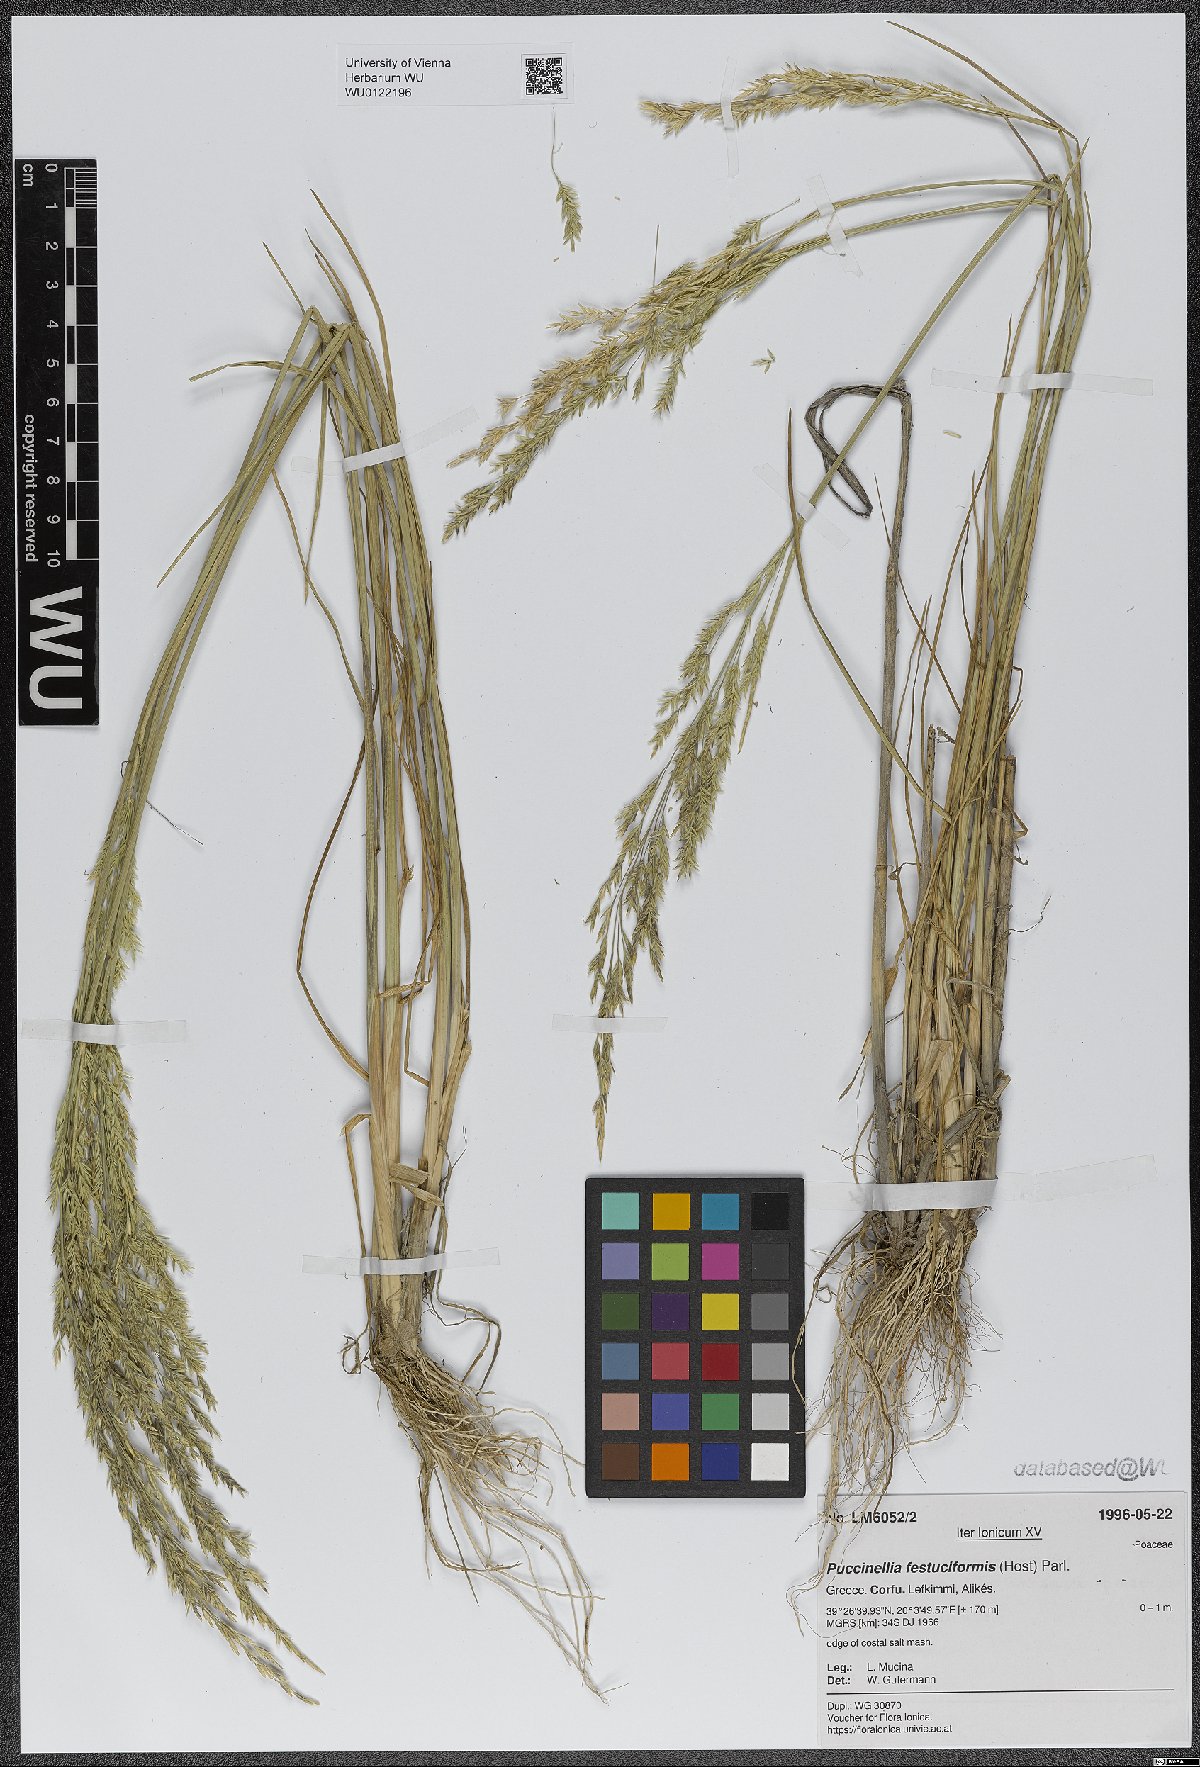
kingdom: Plantae
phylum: Tracheophyta
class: Liliopsida
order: Poales
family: Poaceae
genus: Puccinellia
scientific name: Puccinellia festuciformis
